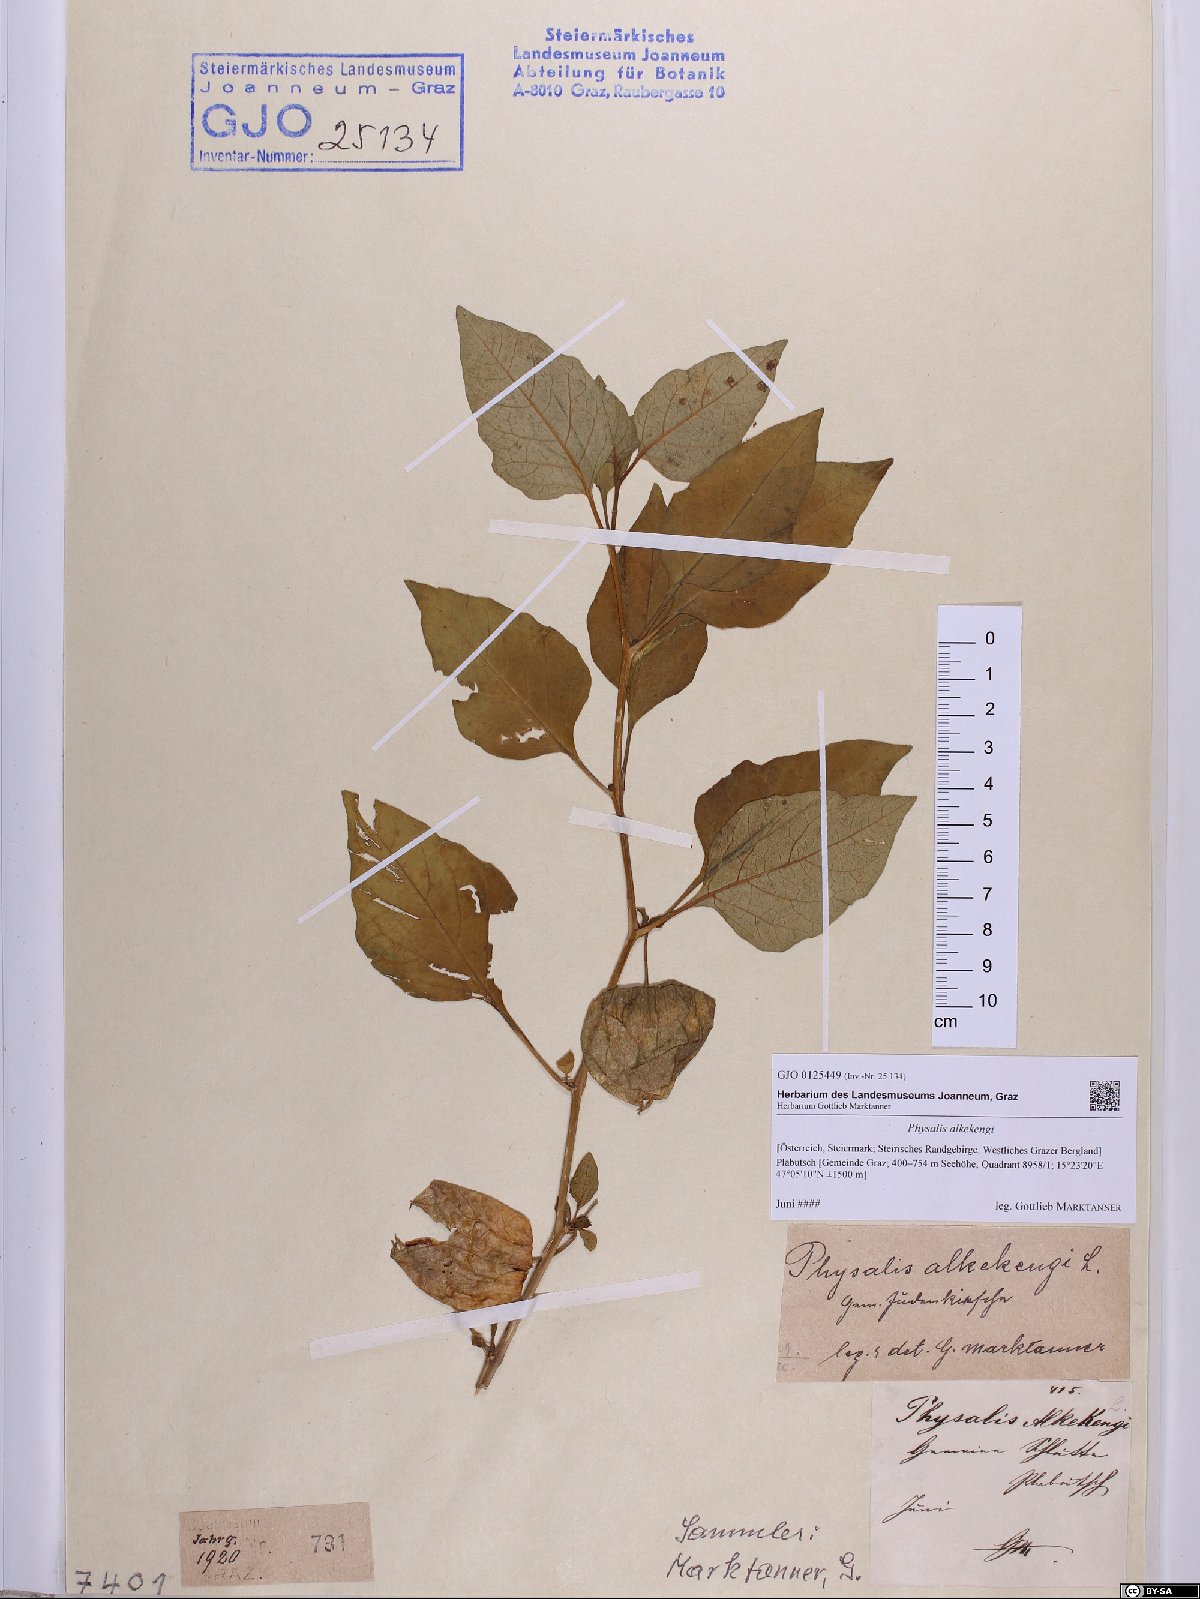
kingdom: Plantae
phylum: Tracheophyta
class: Magnoliopsida
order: Solanales
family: Solanaceae
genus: Alkekengi
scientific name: Alkekengi officinarum
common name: Japanese-lantern
